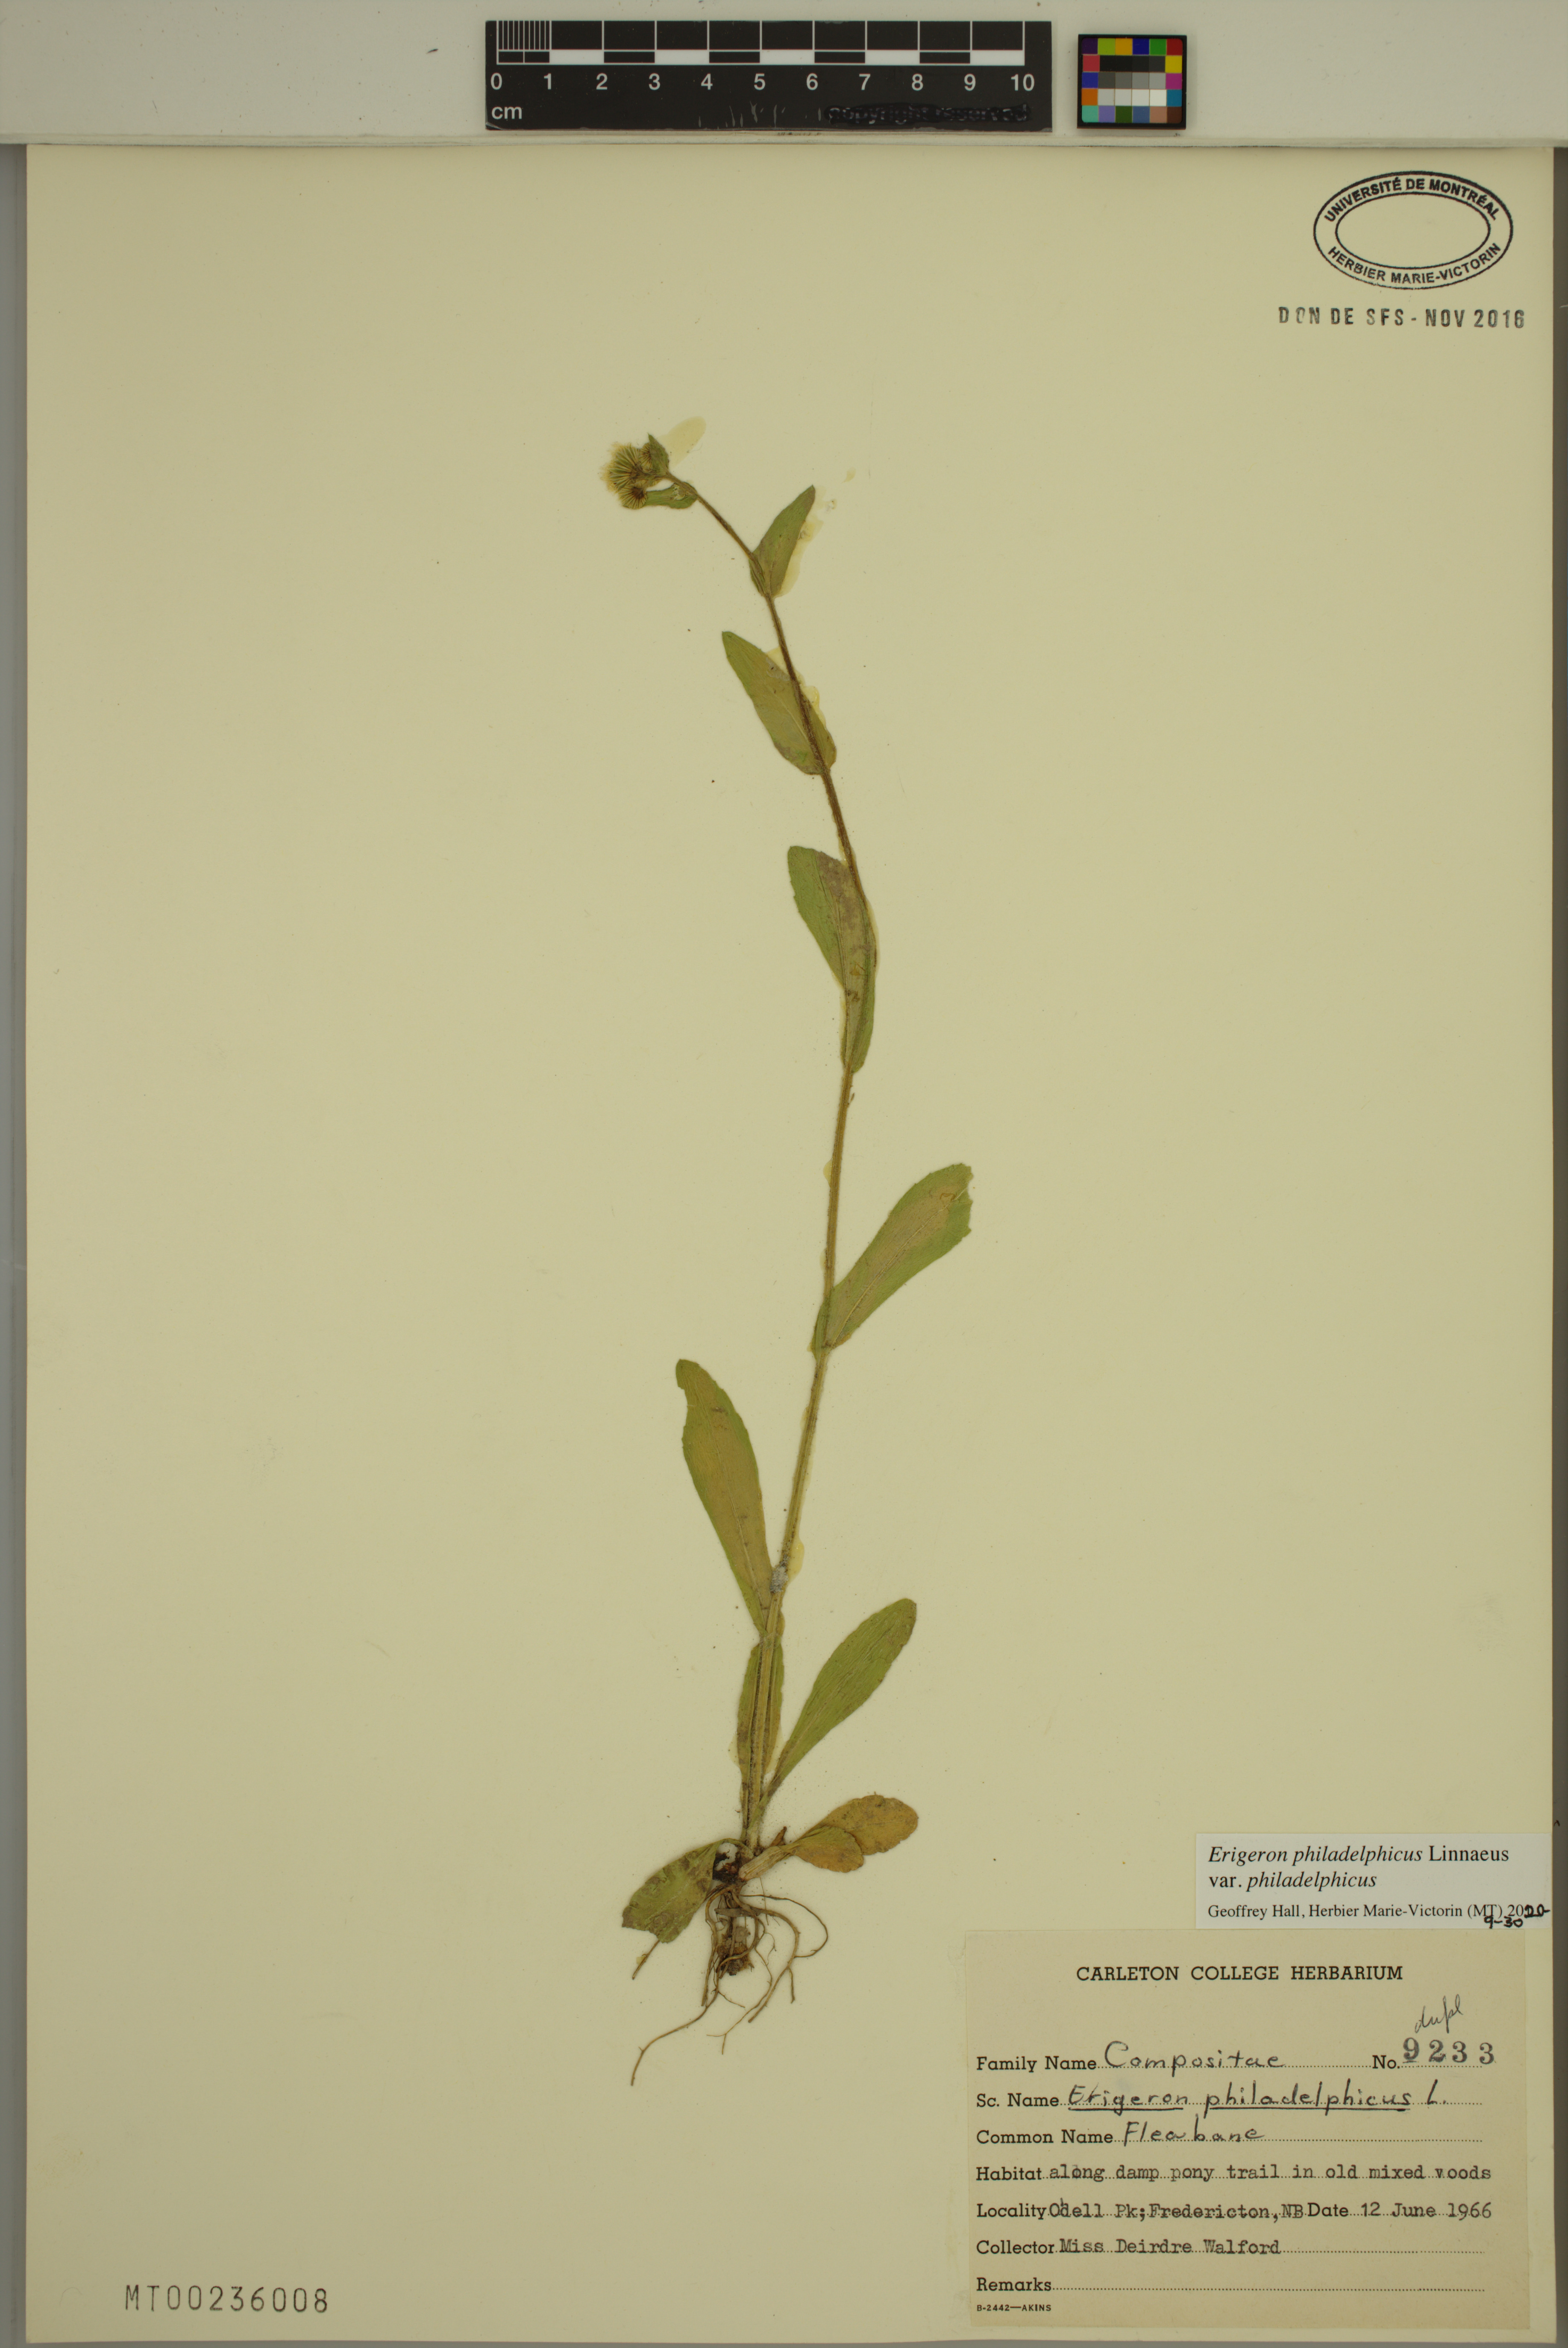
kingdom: Plantae
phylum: Tracheophyta
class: Magnoliopsida
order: Asterales
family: Asteraceae
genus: Erigeron
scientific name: Erigeron philadelphicus
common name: Robin's-plantain
